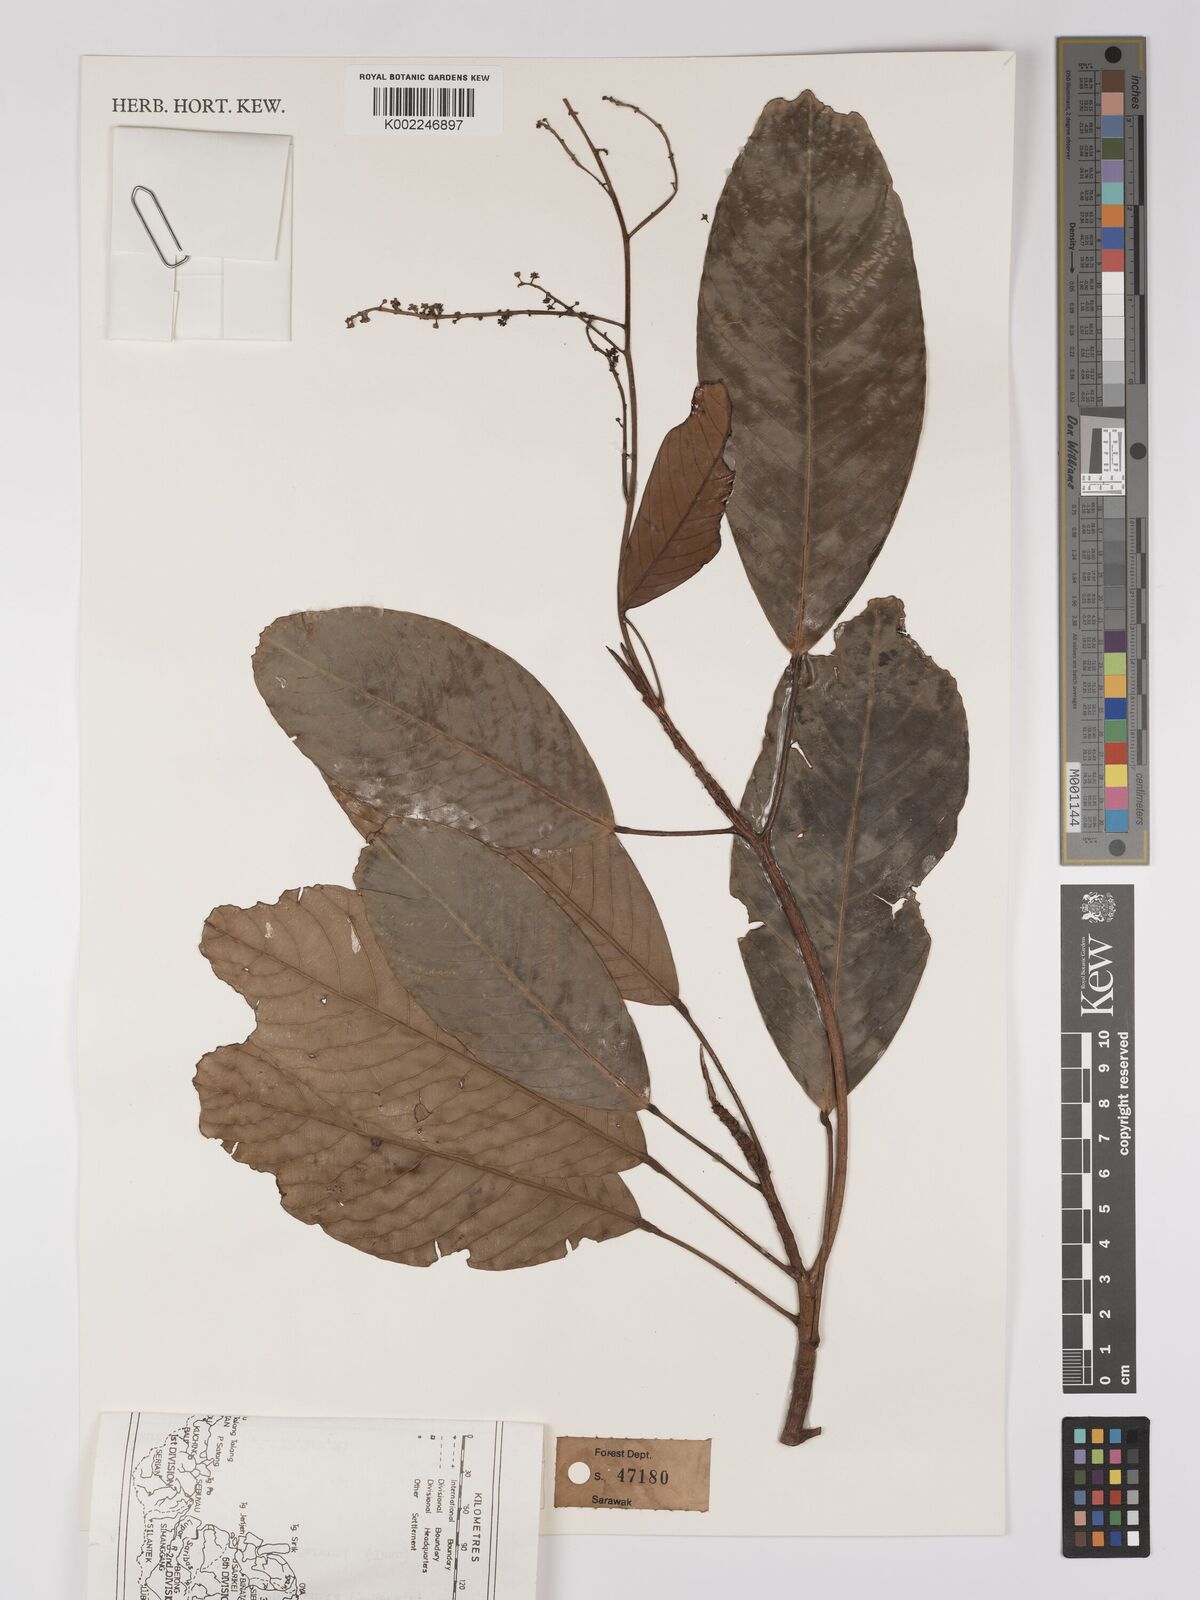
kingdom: Plantae
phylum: Tracheophyta
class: Magnoliopsida
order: Malpighiales
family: Centroplacaceae
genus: Bhesa
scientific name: Bhesa paniculata
